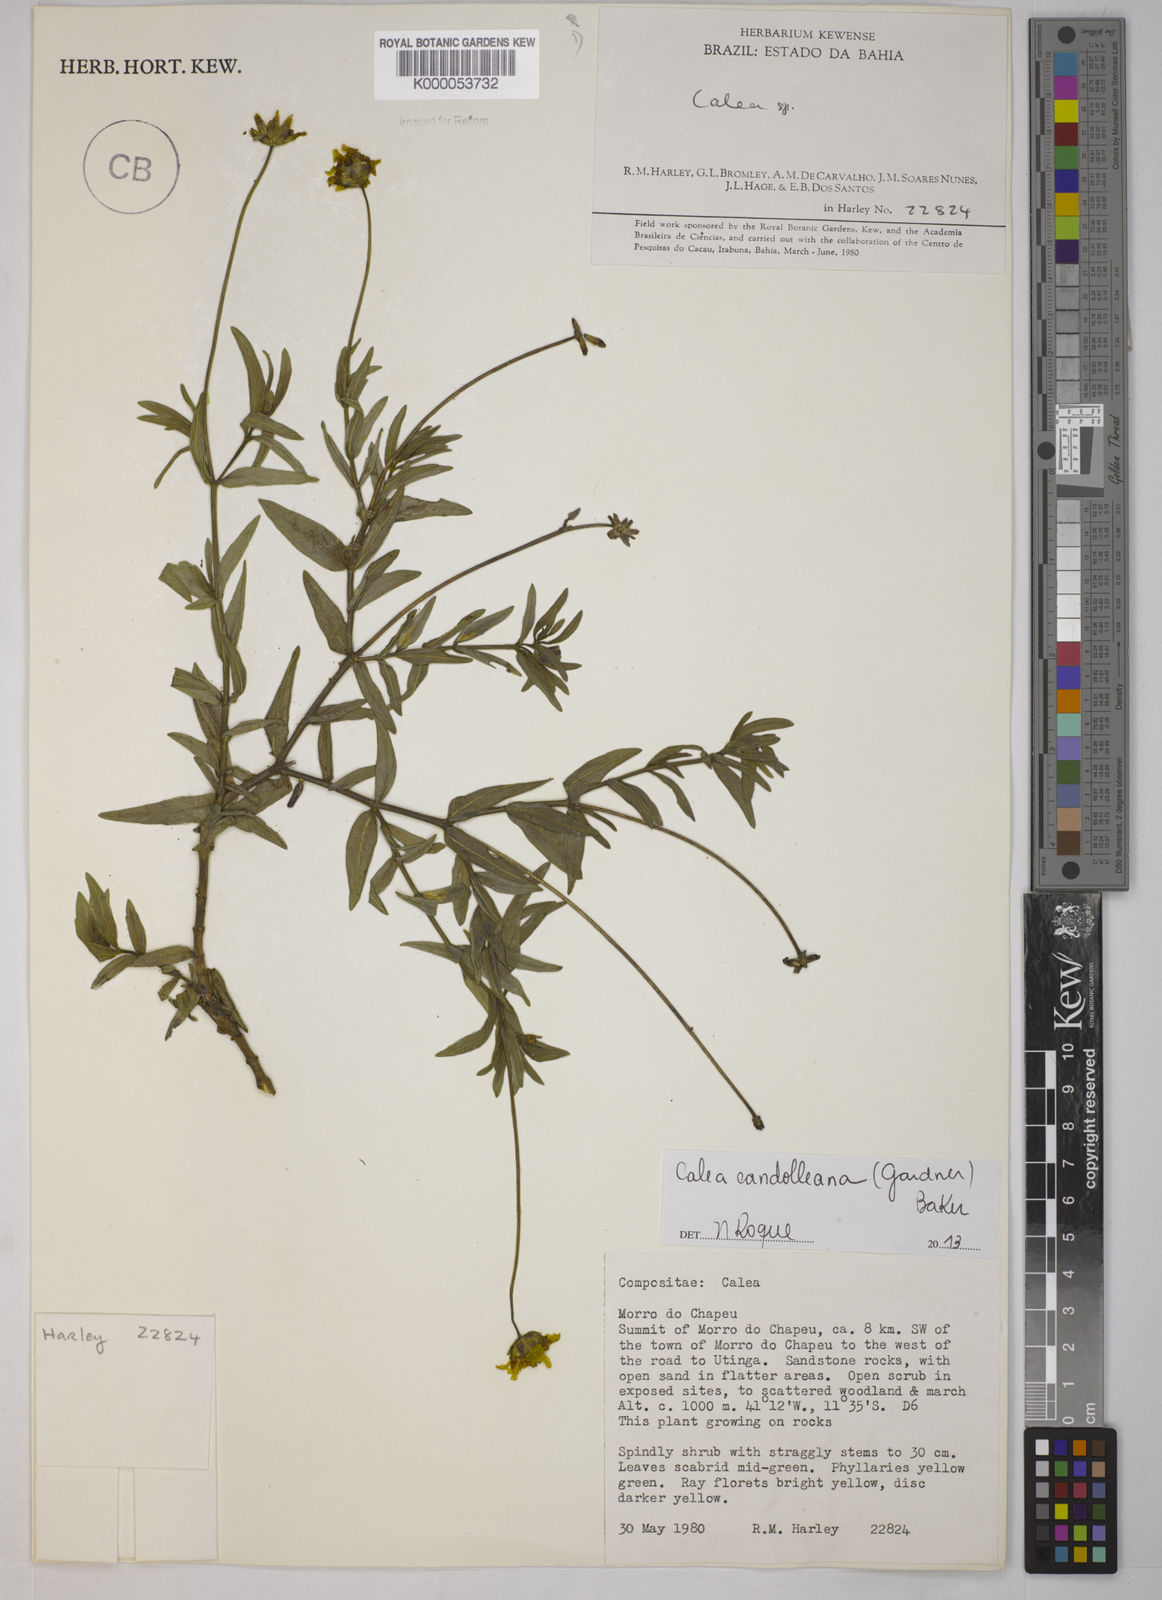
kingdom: Plantae
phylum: Tracheophyta
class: Magnoliopsida
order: Asterales
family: Asteraceae
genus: Calea
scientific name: Calea
